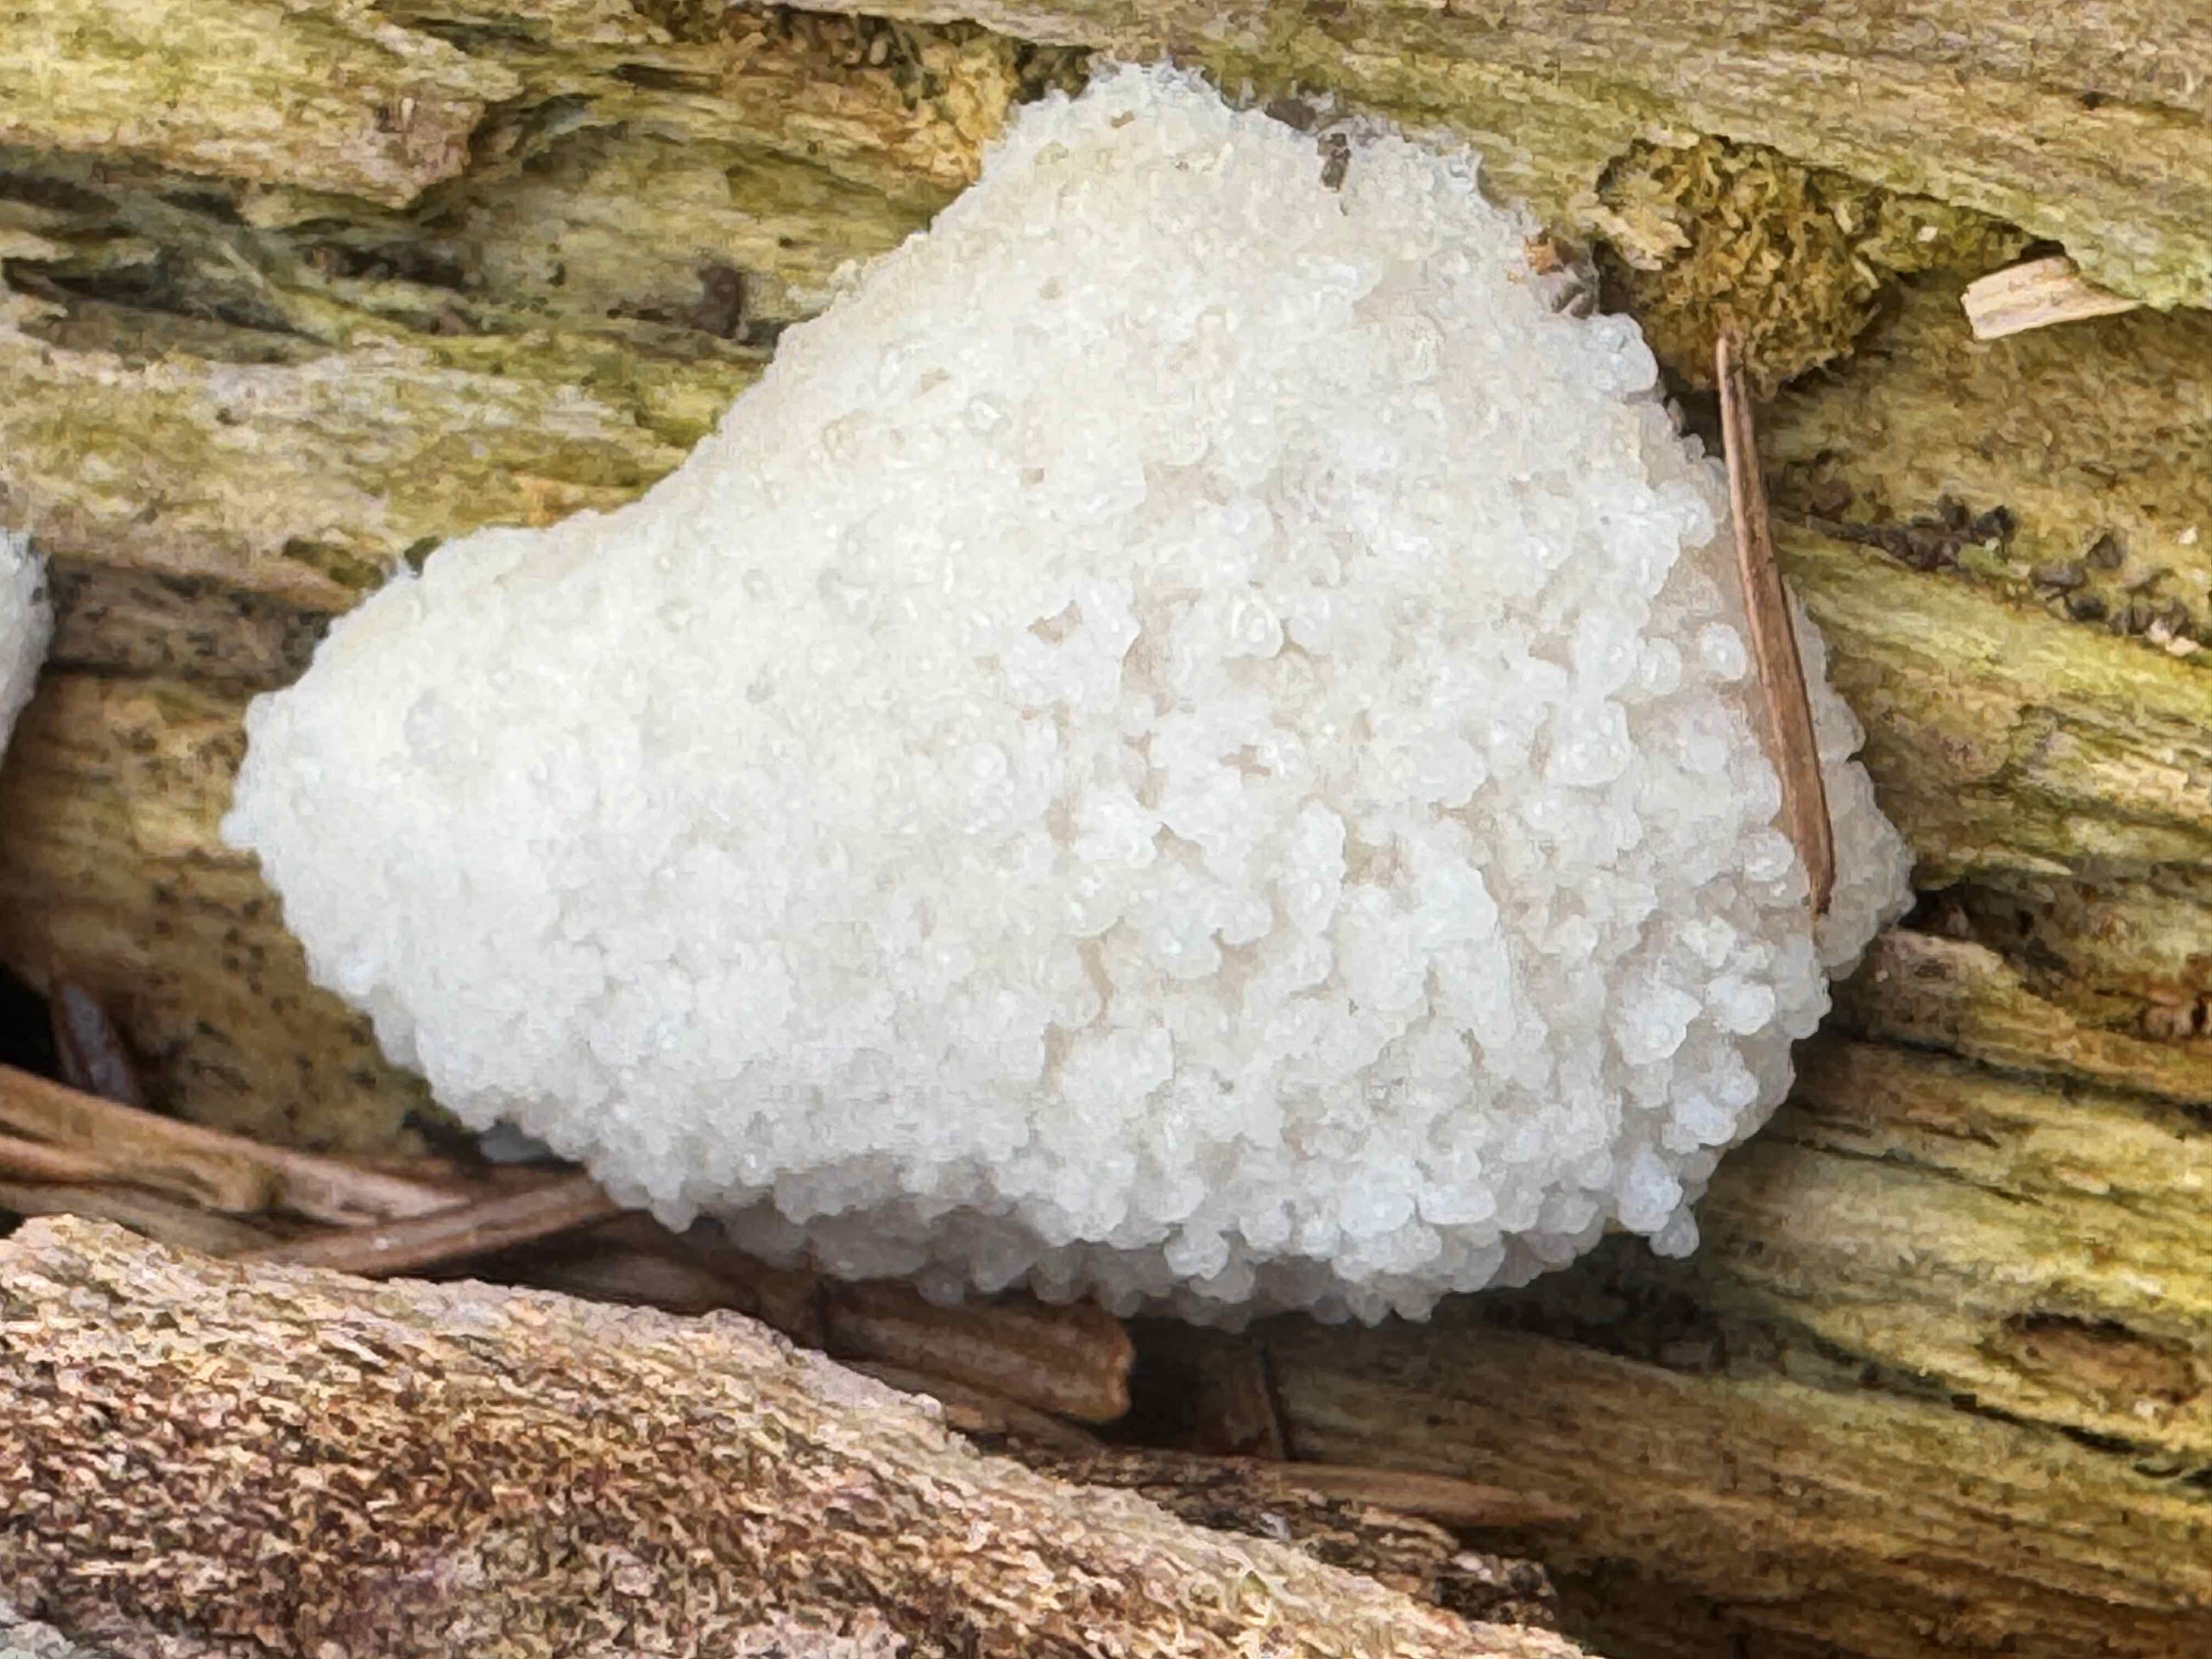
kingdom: Protozoa
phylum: Mycetozoa
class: Myxomycetes
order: Cribrariales
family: Tubiferaceae
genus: Reticularia
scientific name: Reticularia lycoperdon
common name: skinnende støvpude
